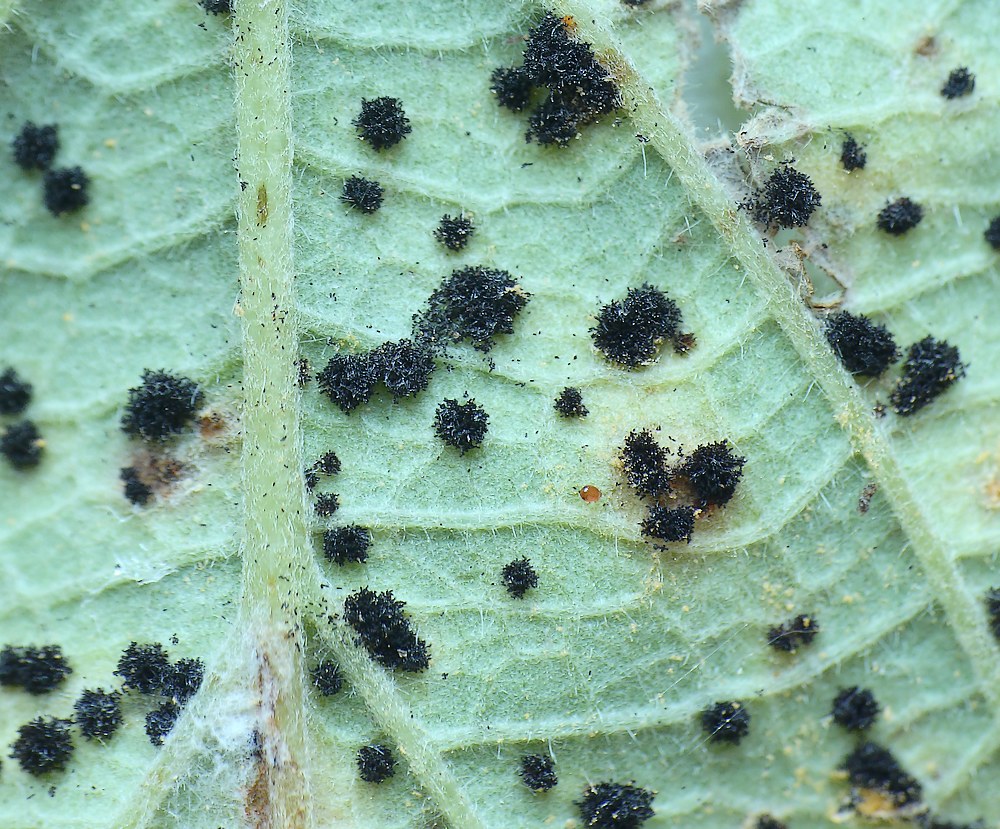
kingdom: Fungi
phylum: Basidiomycota
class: Pucciniomycetes
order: Pucciniales
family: Phragmidiaceae
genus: Phragmidium
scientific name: Phragmidium violaceum
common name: violet flercellerust
